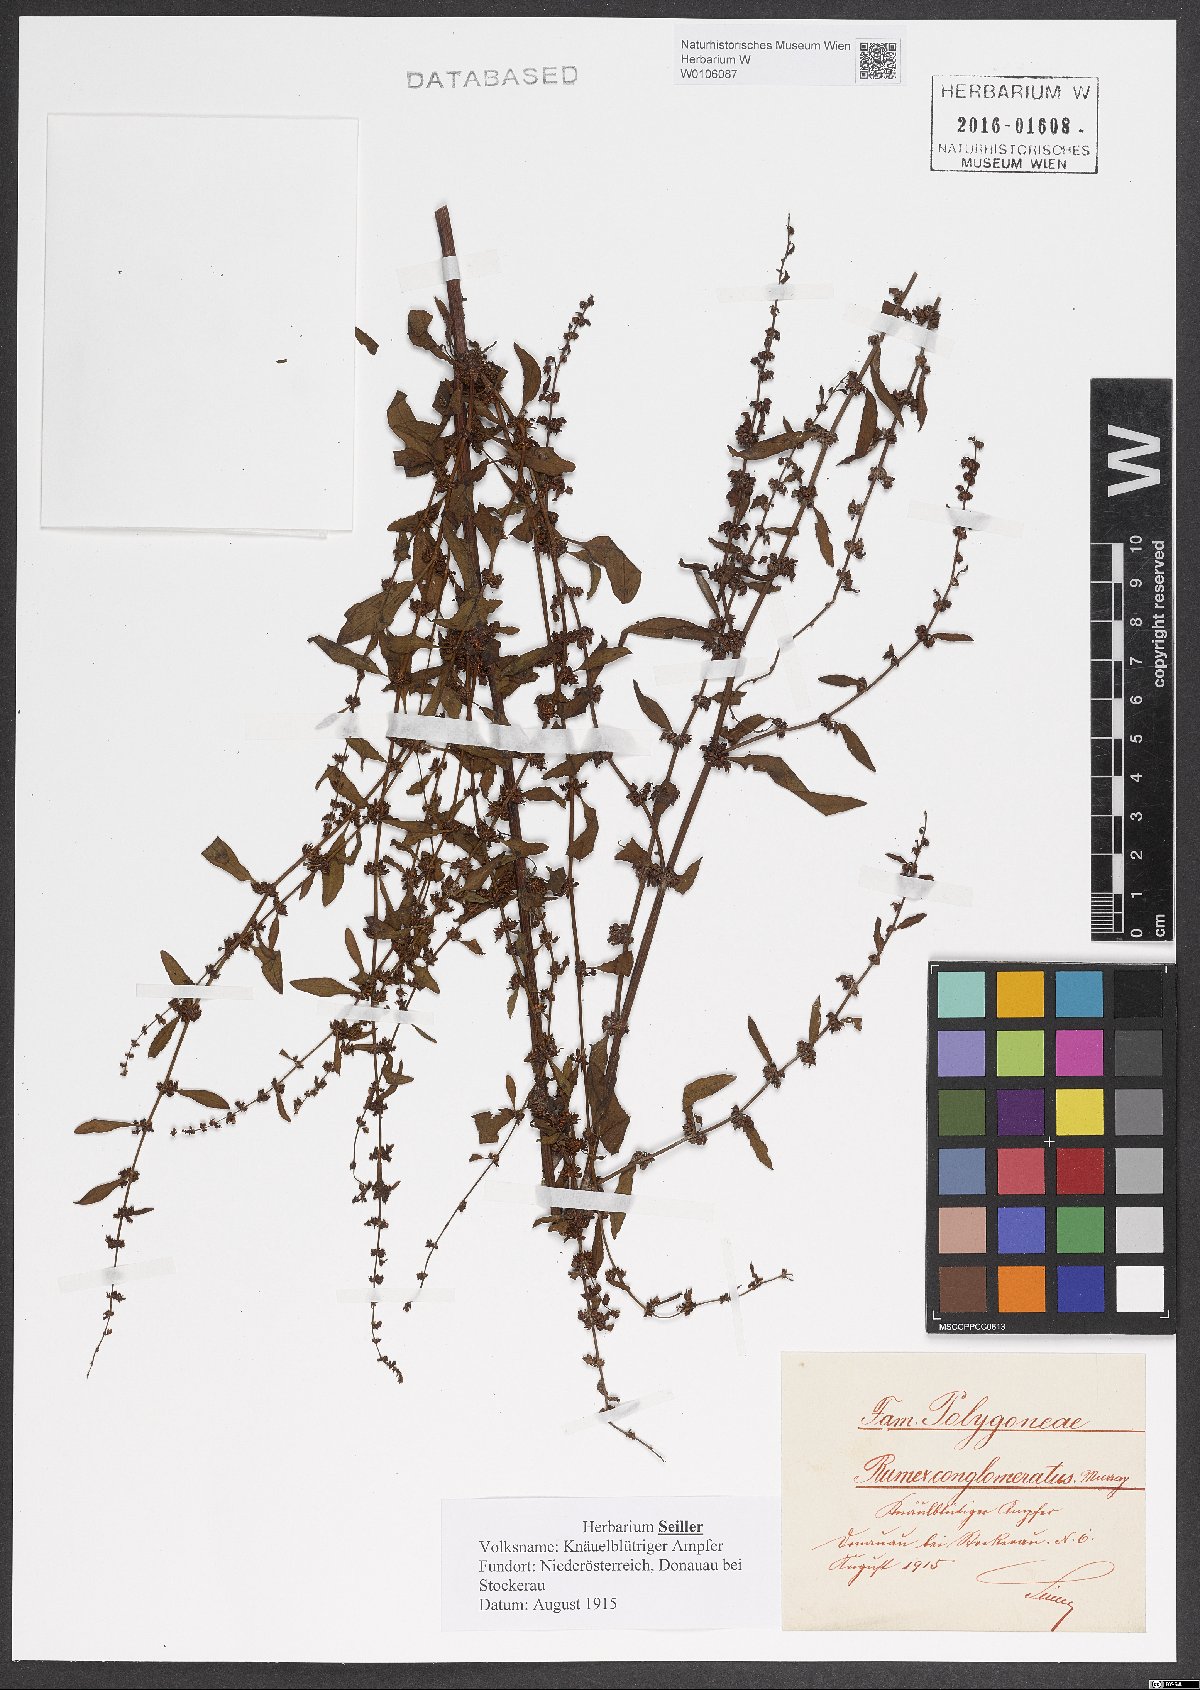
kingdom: Plantae
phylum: Tracheophyta
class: Magnoliopsida
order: Caryophyllales
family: Polygonaceae
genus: Rumex
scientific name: Rumex conglomeratus
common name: Clustered dock
